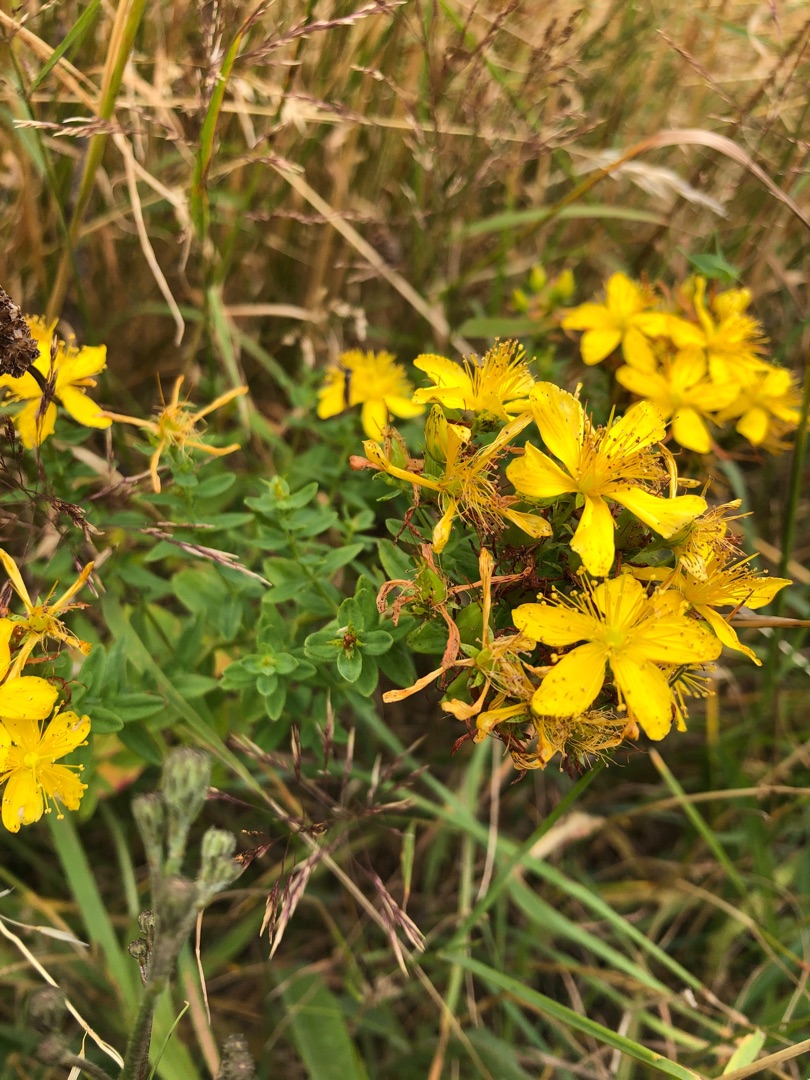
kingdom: Plantae
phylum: Tracheophyta
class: Magnoliopsida
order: Malpighiales
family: Hypericaceae
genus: Hypericum
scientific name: Hypericum perforatum
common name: Prikbladet perikon
